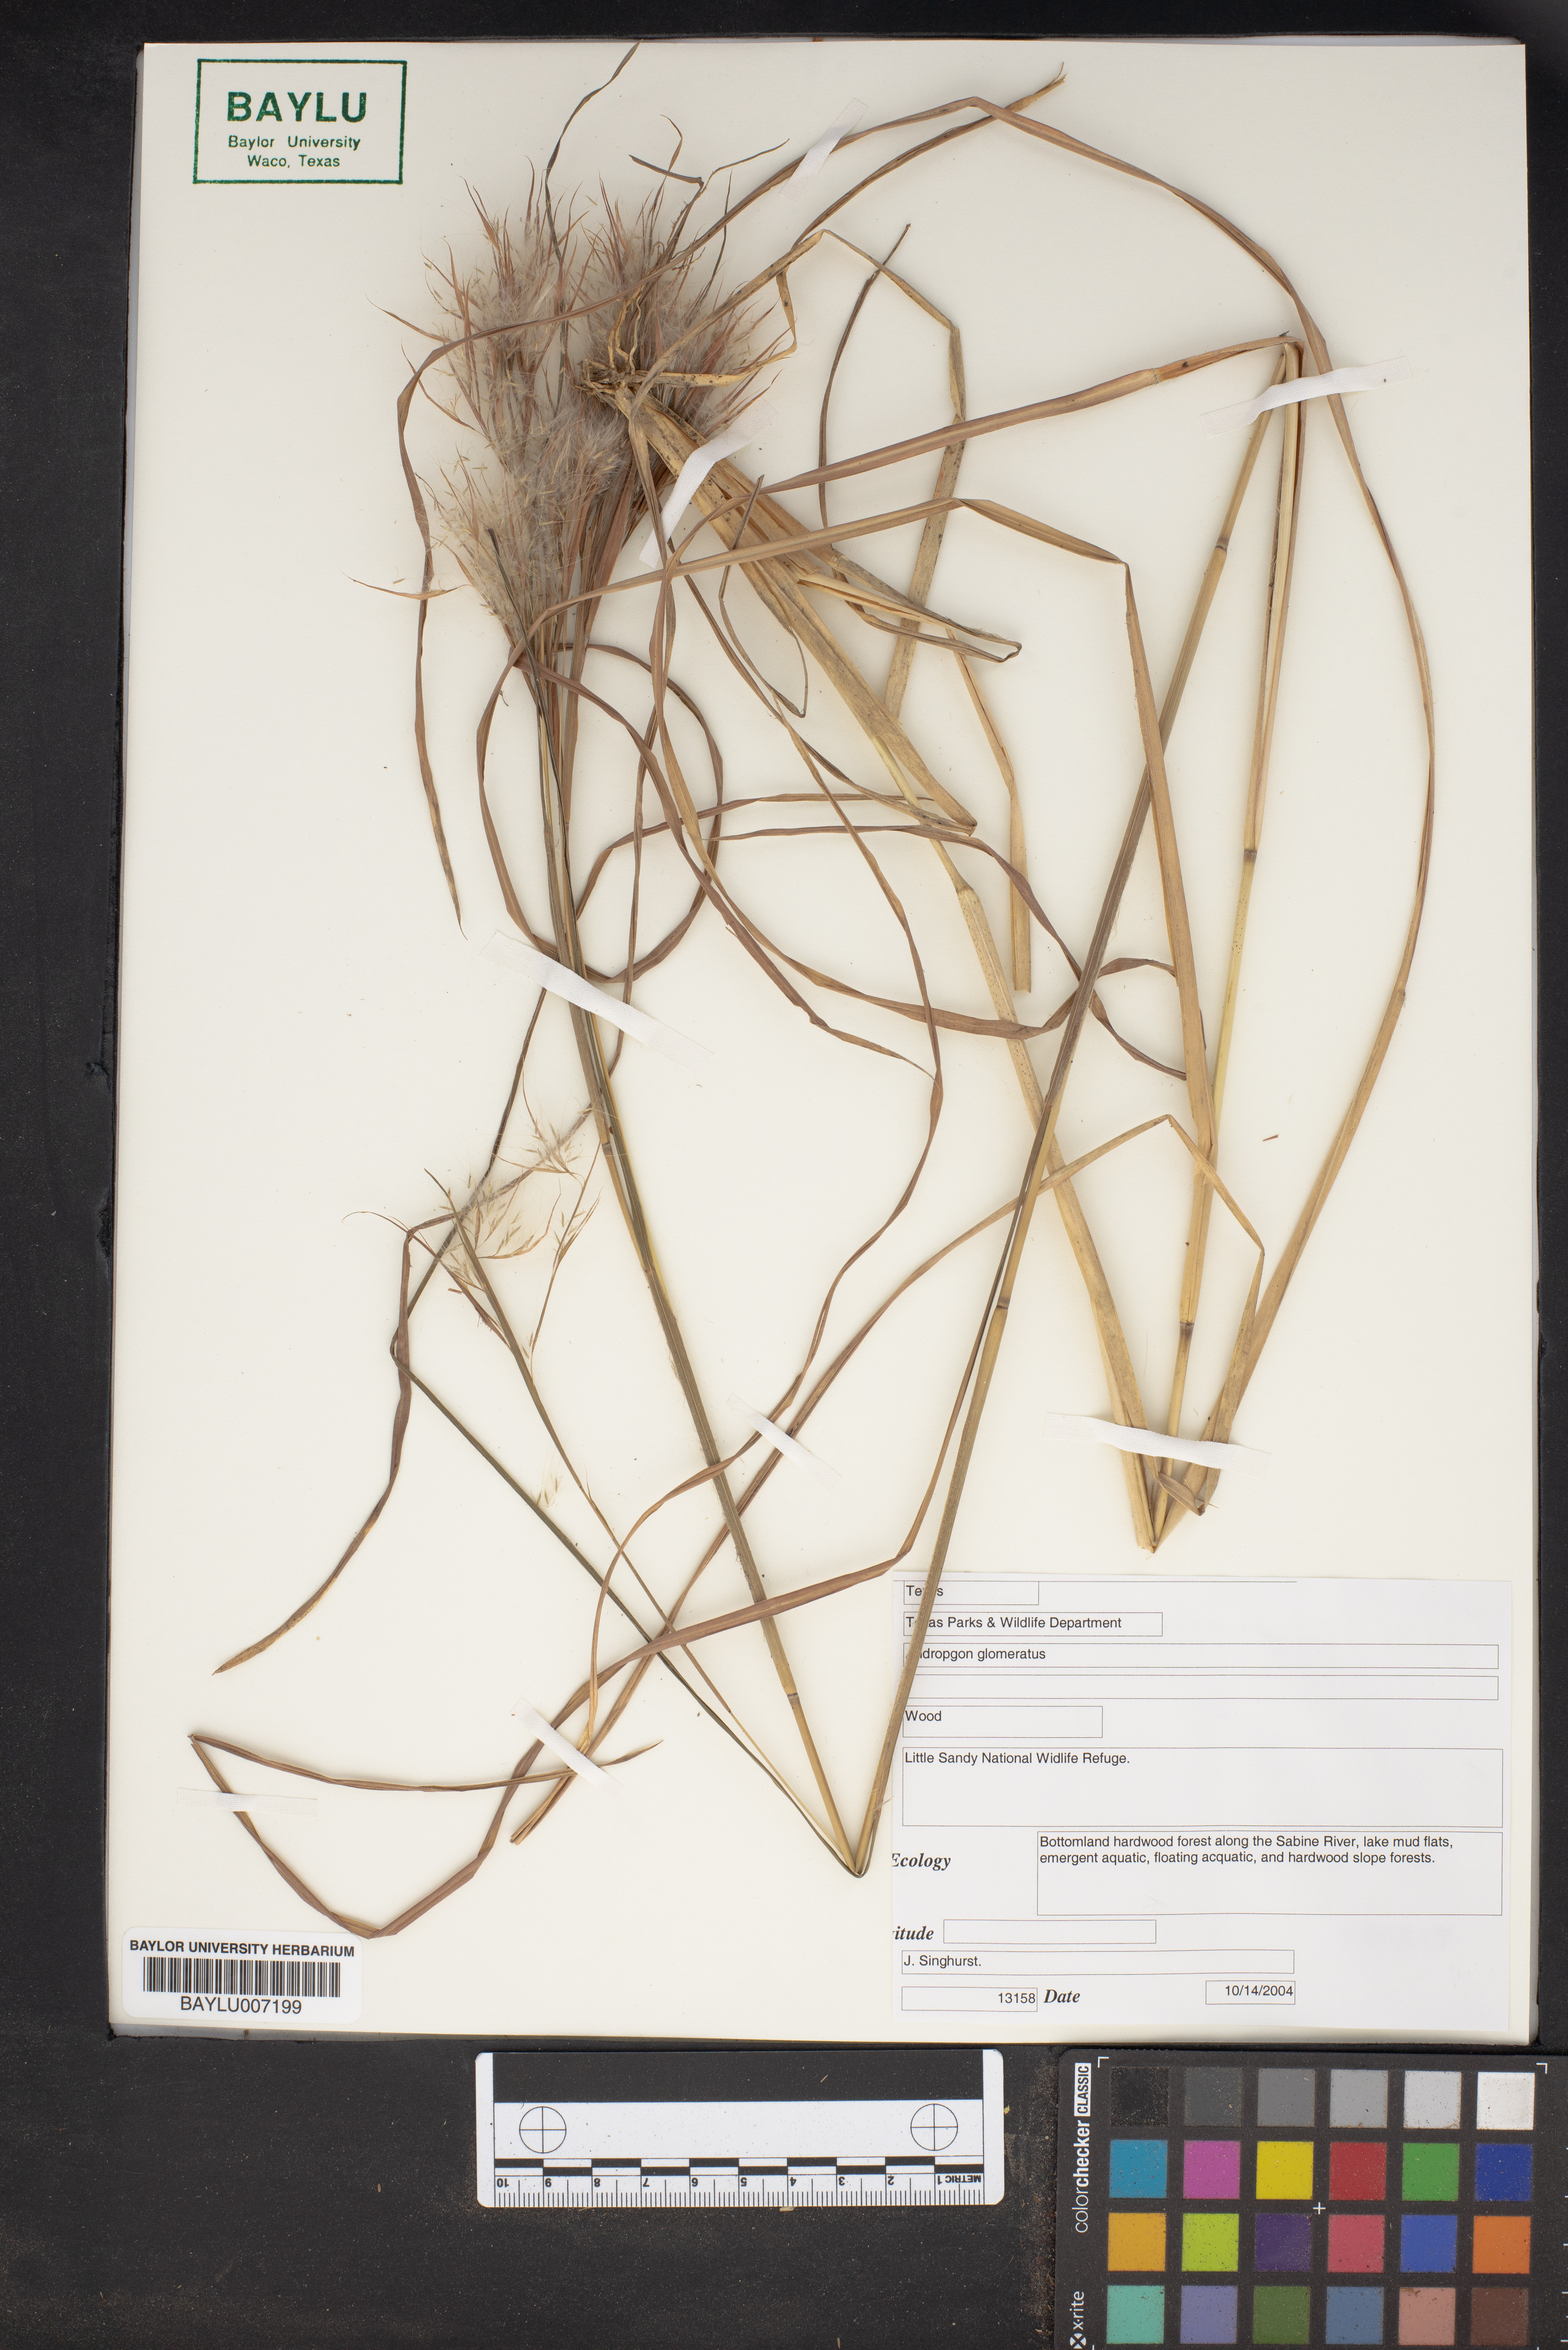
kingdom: Plantae
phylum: Tracheophyta
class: Liliopsida
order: Poales
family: Poaceae
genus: Andropogon
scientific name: Andropogon glomeratus
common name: Bushy beard grass
